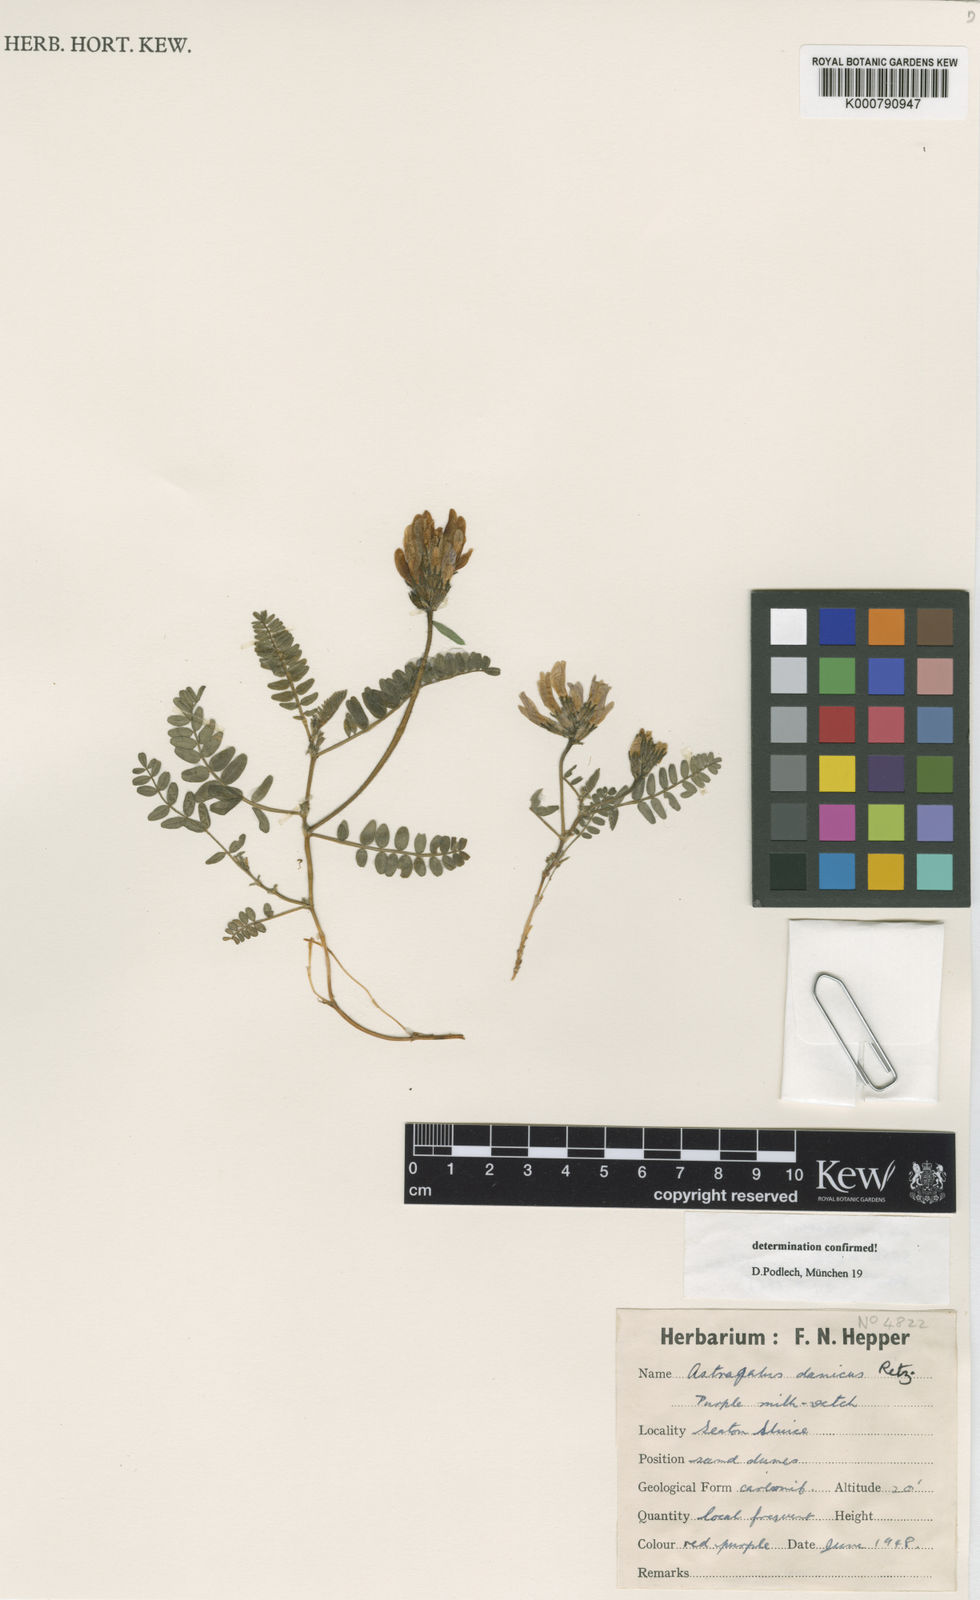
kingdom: Plantae
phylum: Tracheophyta
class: Magnoliopsida
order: Fabales
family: Fabaceae
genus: Astragalus
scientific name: Astragalus danicus
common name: Purple milk-vetch
